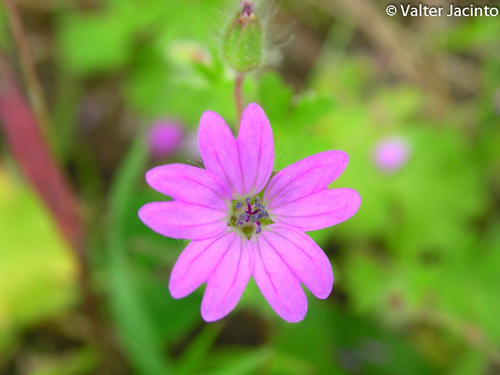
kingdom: Plantae
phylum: Tracheophyta
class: Magnoliopsida
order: Geraniales
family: Geraniaceae
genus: Geranium
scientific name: Geranium molle
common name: Dove's-foot crane's-bill
